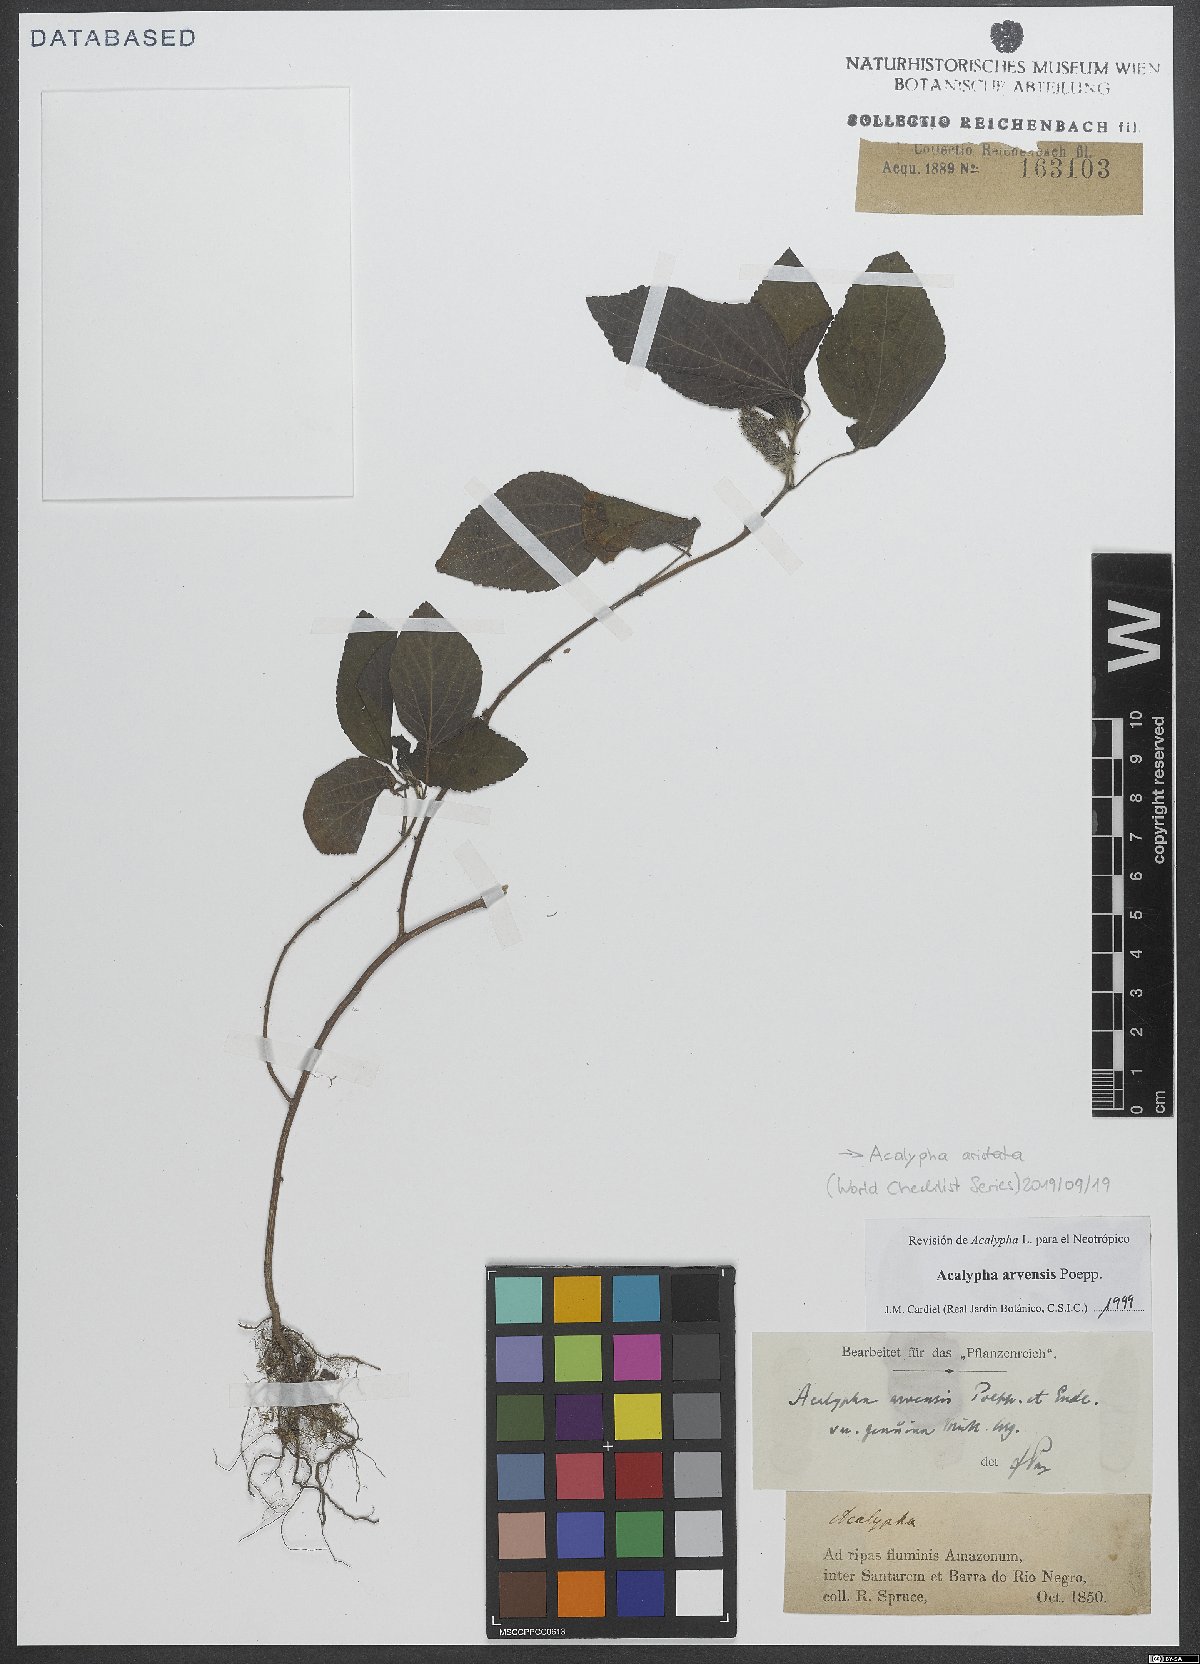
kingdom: Plantae
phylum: Tracheophyta
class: Magnoliopsida
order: Malpighiales
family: Euphorbiaceae
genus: Acalypha
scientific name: Acalypha alopecuroidea
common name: Foxtail copperleaf
